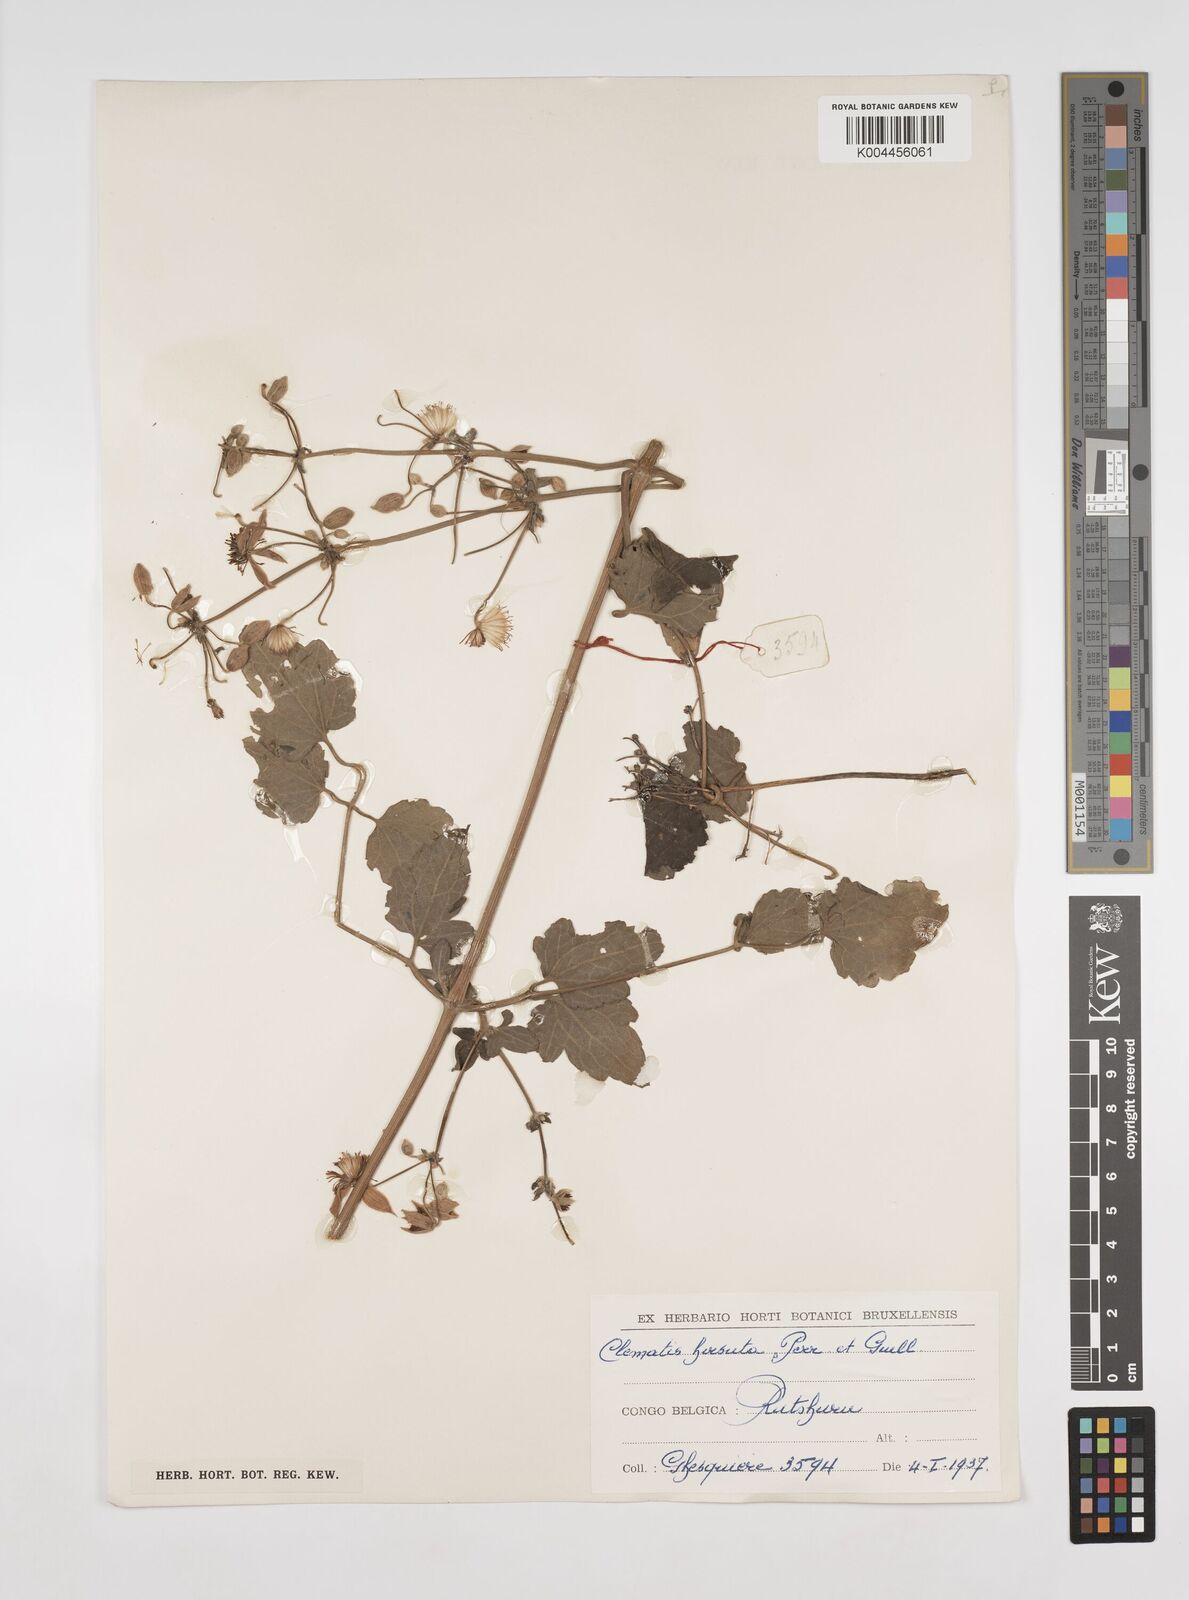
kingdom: Plantae
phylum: Tracheophyta
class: Magnoliopsida
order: Ranunculales
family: Ranunculaceae
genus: Clematis
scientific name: Clematis hirsuta
